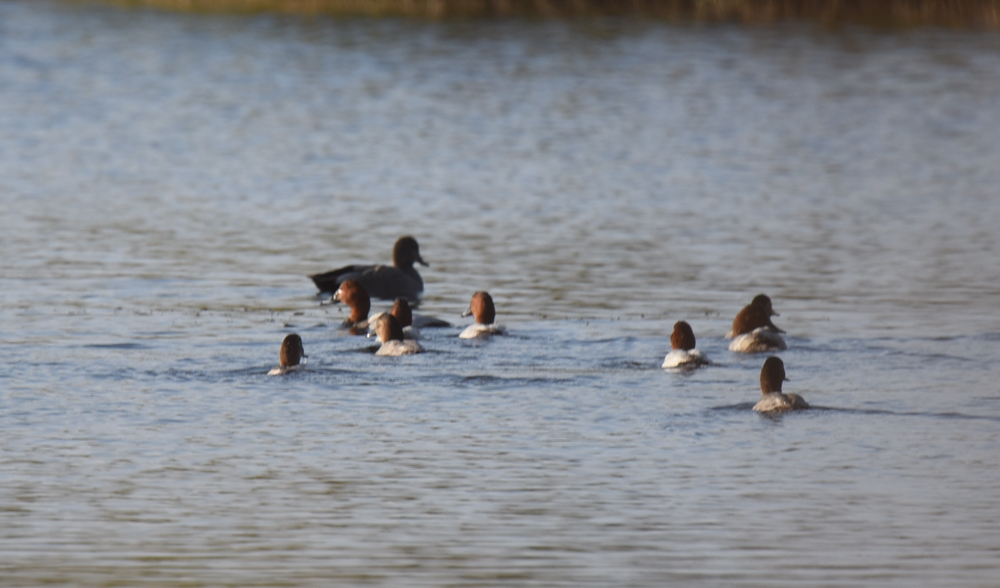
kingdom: Animalia
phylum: Chordata
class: Aves
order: Anseriformes
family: Anatidae
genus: Aythya
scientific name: Aythya ferina
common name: Common pochard
